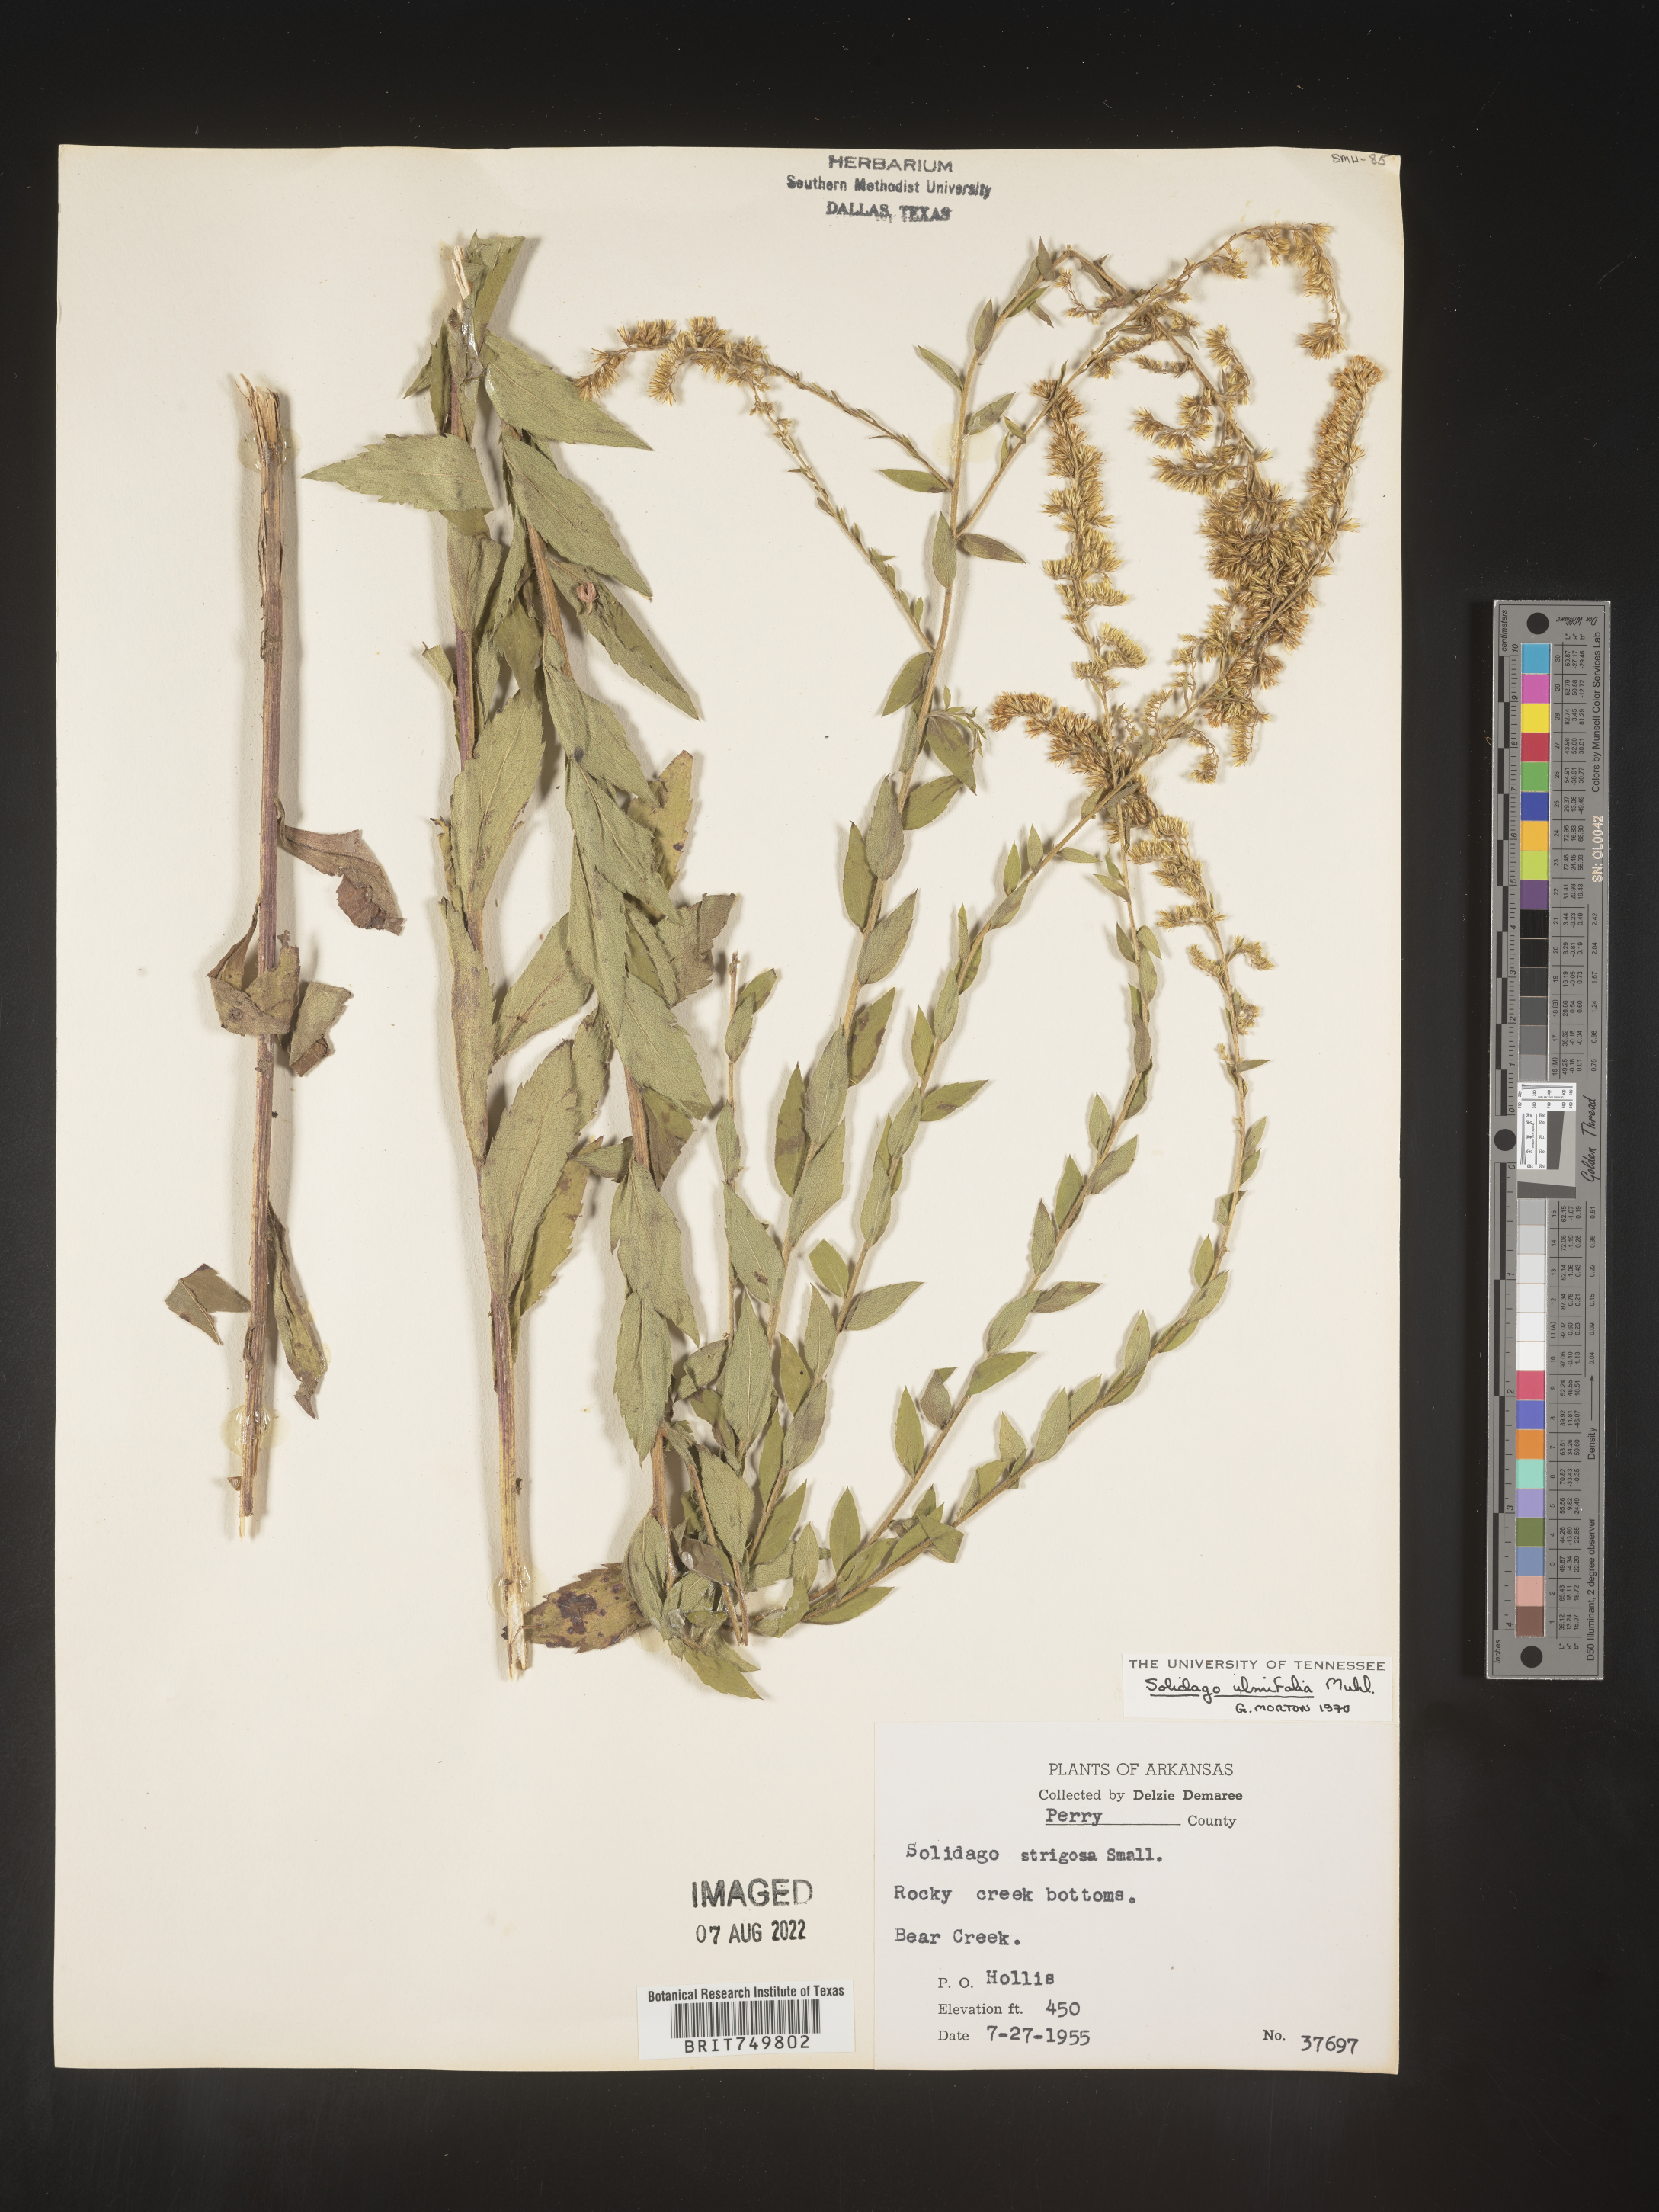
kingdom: Plantae
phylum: Tracheophyta
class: Magnoliopsida
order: Asterales
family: Asteraceae
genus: Solidago
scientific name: Solidago ulmifolia
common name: Elm-leaf goldenrod
